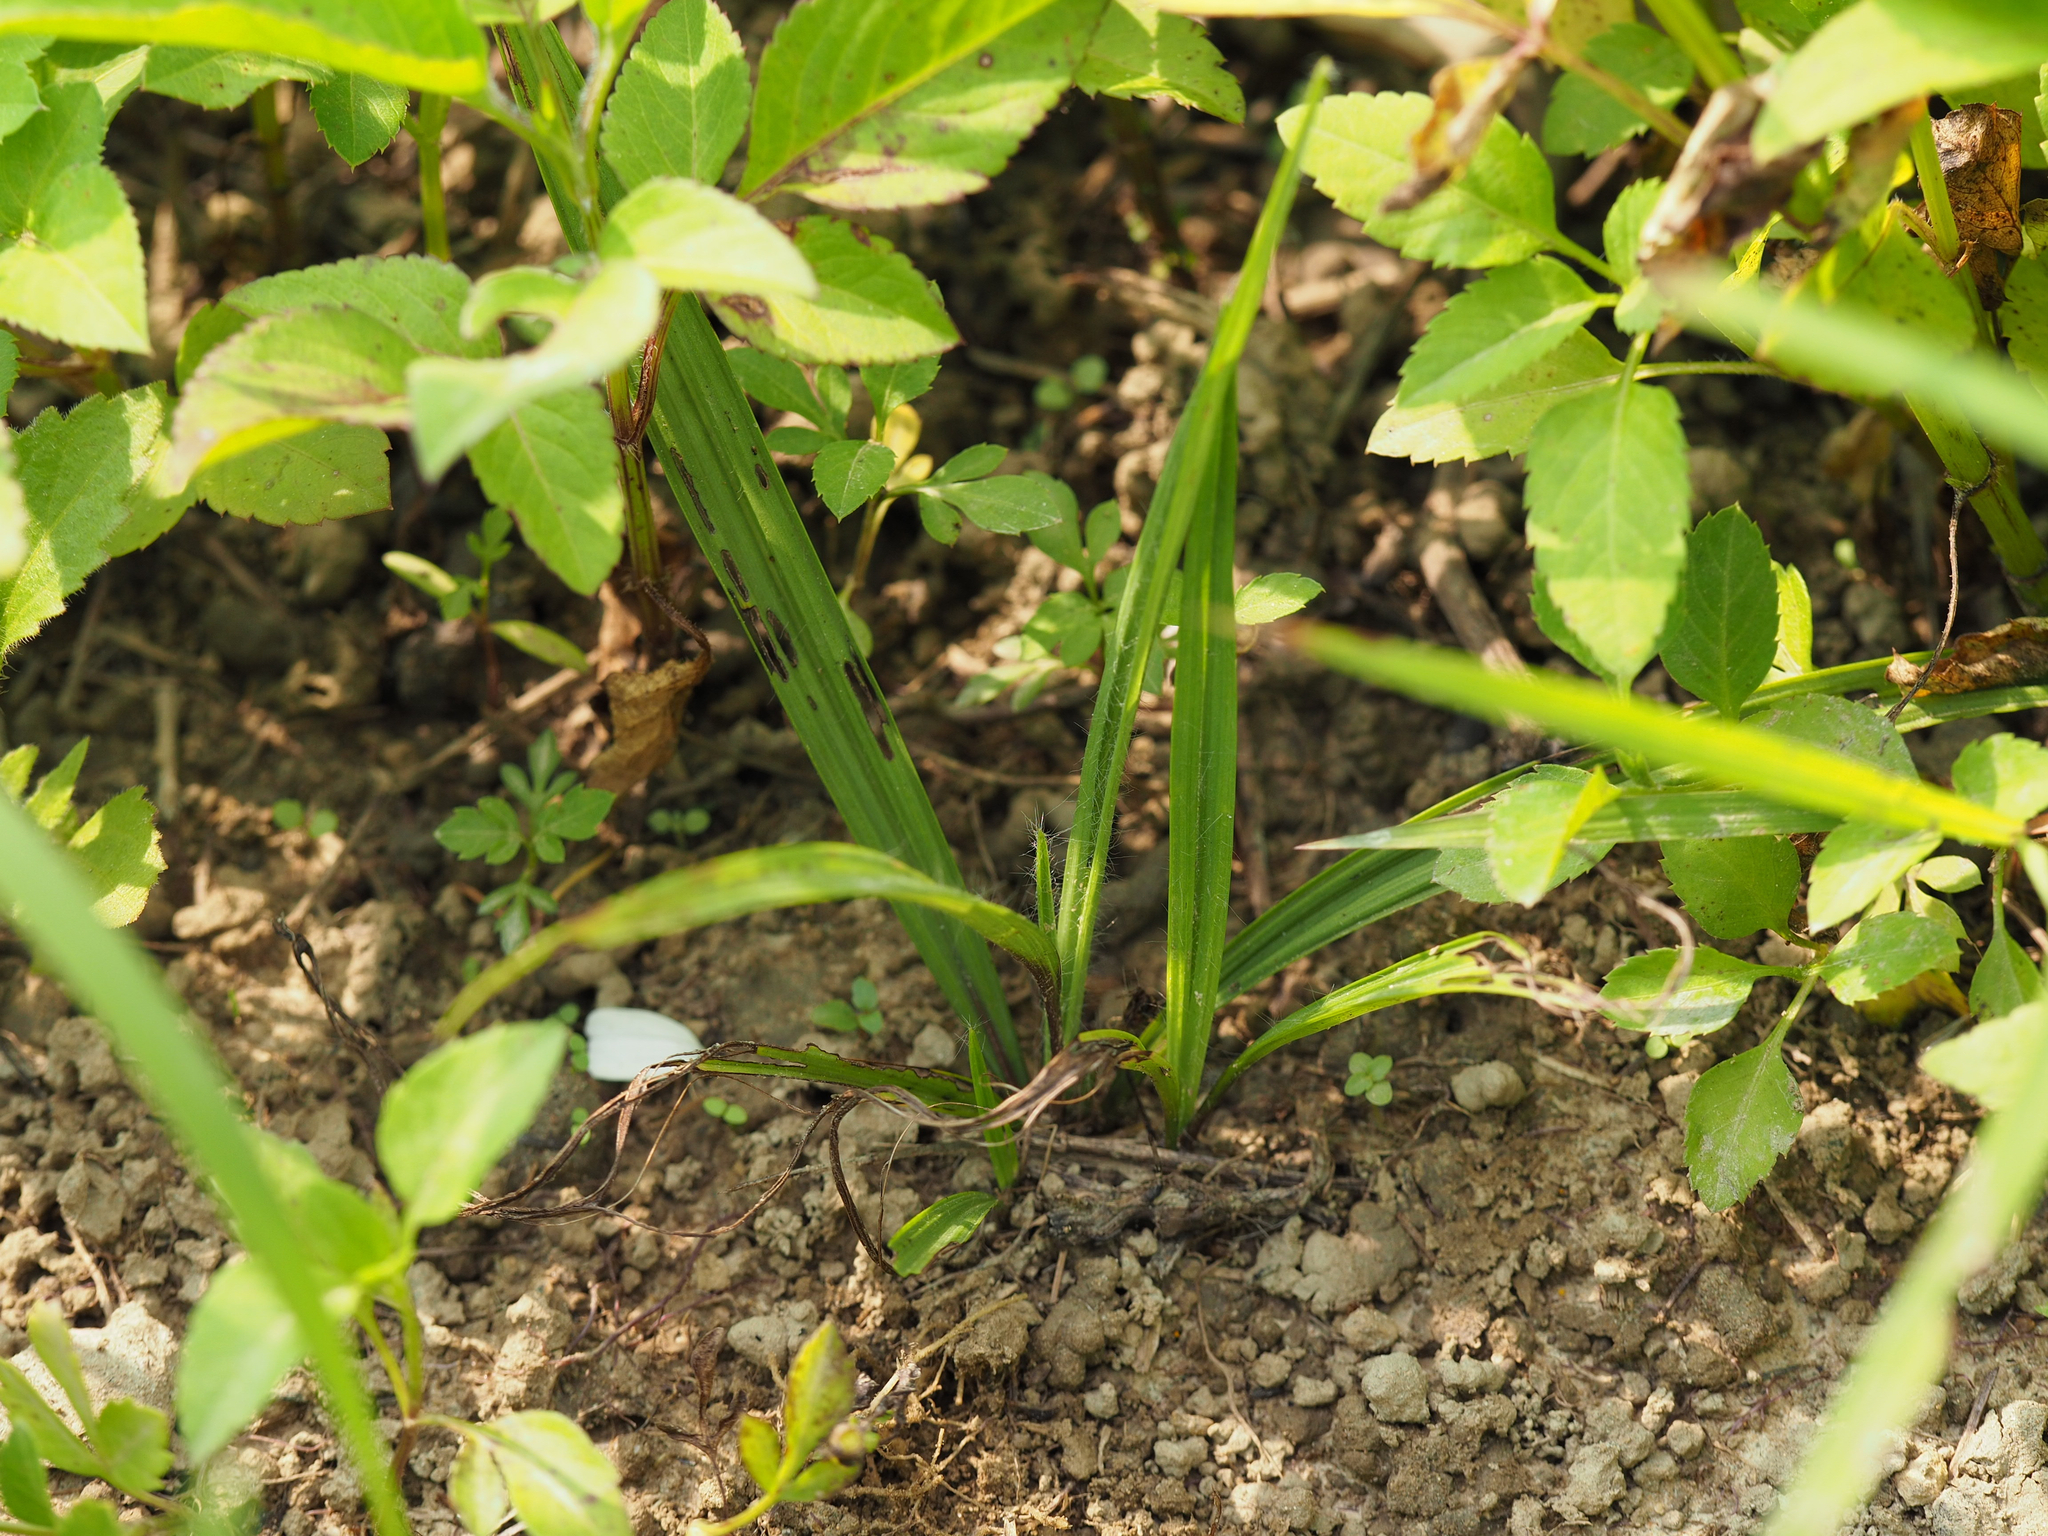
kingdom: Plantae
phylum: Tracheophyta
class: Liliopsida
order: Asparagales
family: Hypoxidaceae
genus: Curculigo
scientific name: Curculigo orchioides
